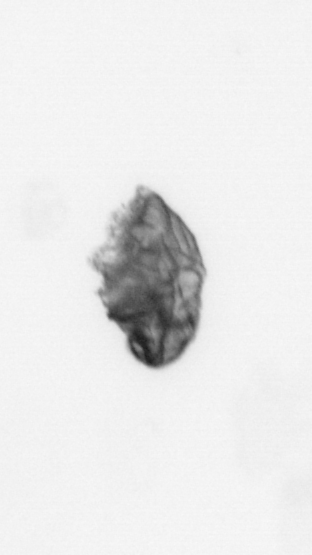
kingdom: Animalia
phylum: Cnidaria
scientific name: Cnidaria
